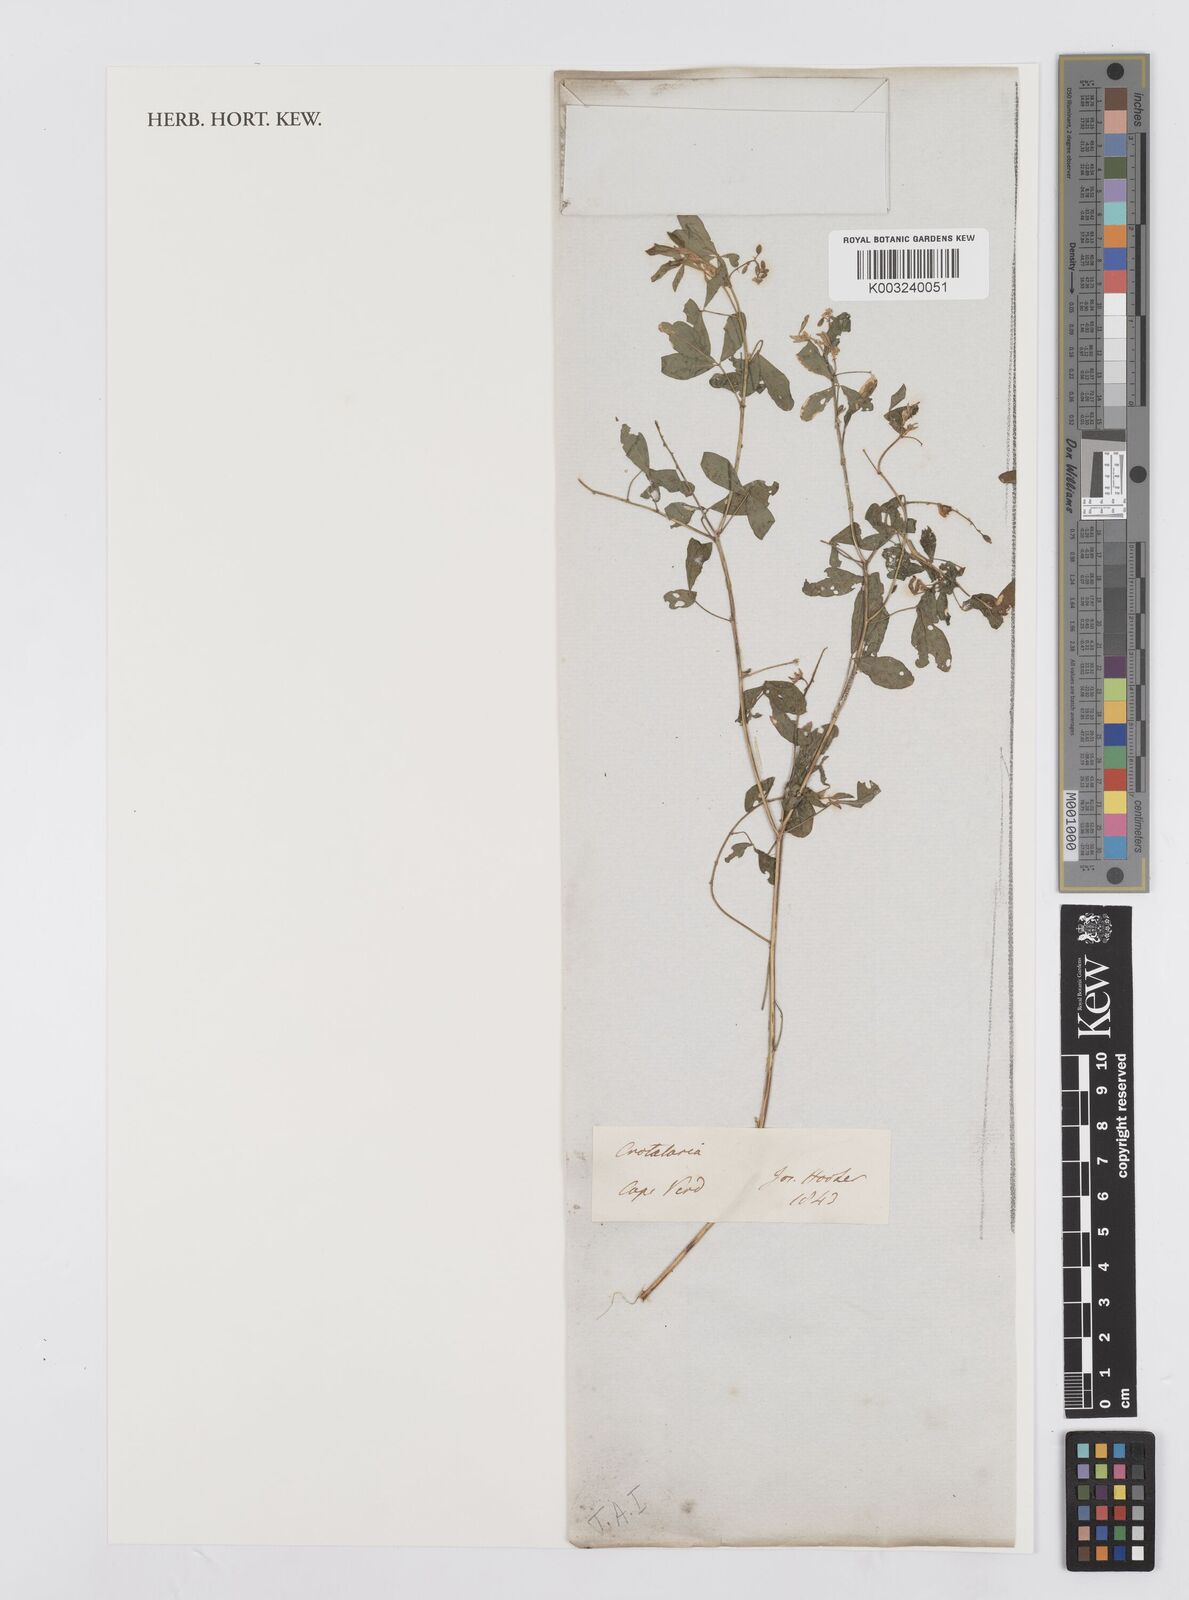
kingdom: Plantae
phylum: Tracheophyta
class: Magnoliopsida
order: Fabales
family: Fabaceae
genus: Crotalaria
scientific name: Crotalaria
